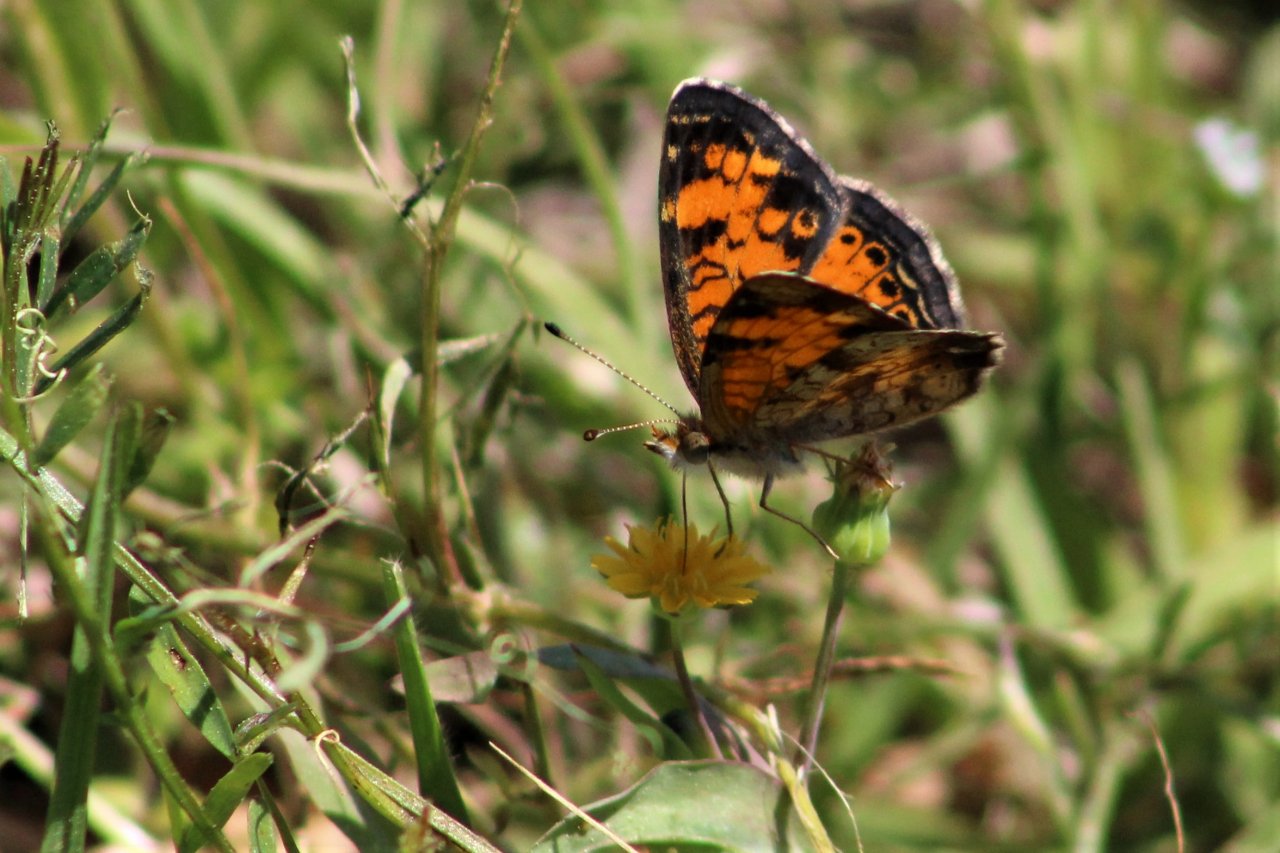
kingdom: Animalia
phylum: Arthropoda
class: Insecta
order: Lepidoptera
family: Nymphalidae
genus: Phyciodes
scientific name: Phyciodes tharos
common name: Pearl Crescent
